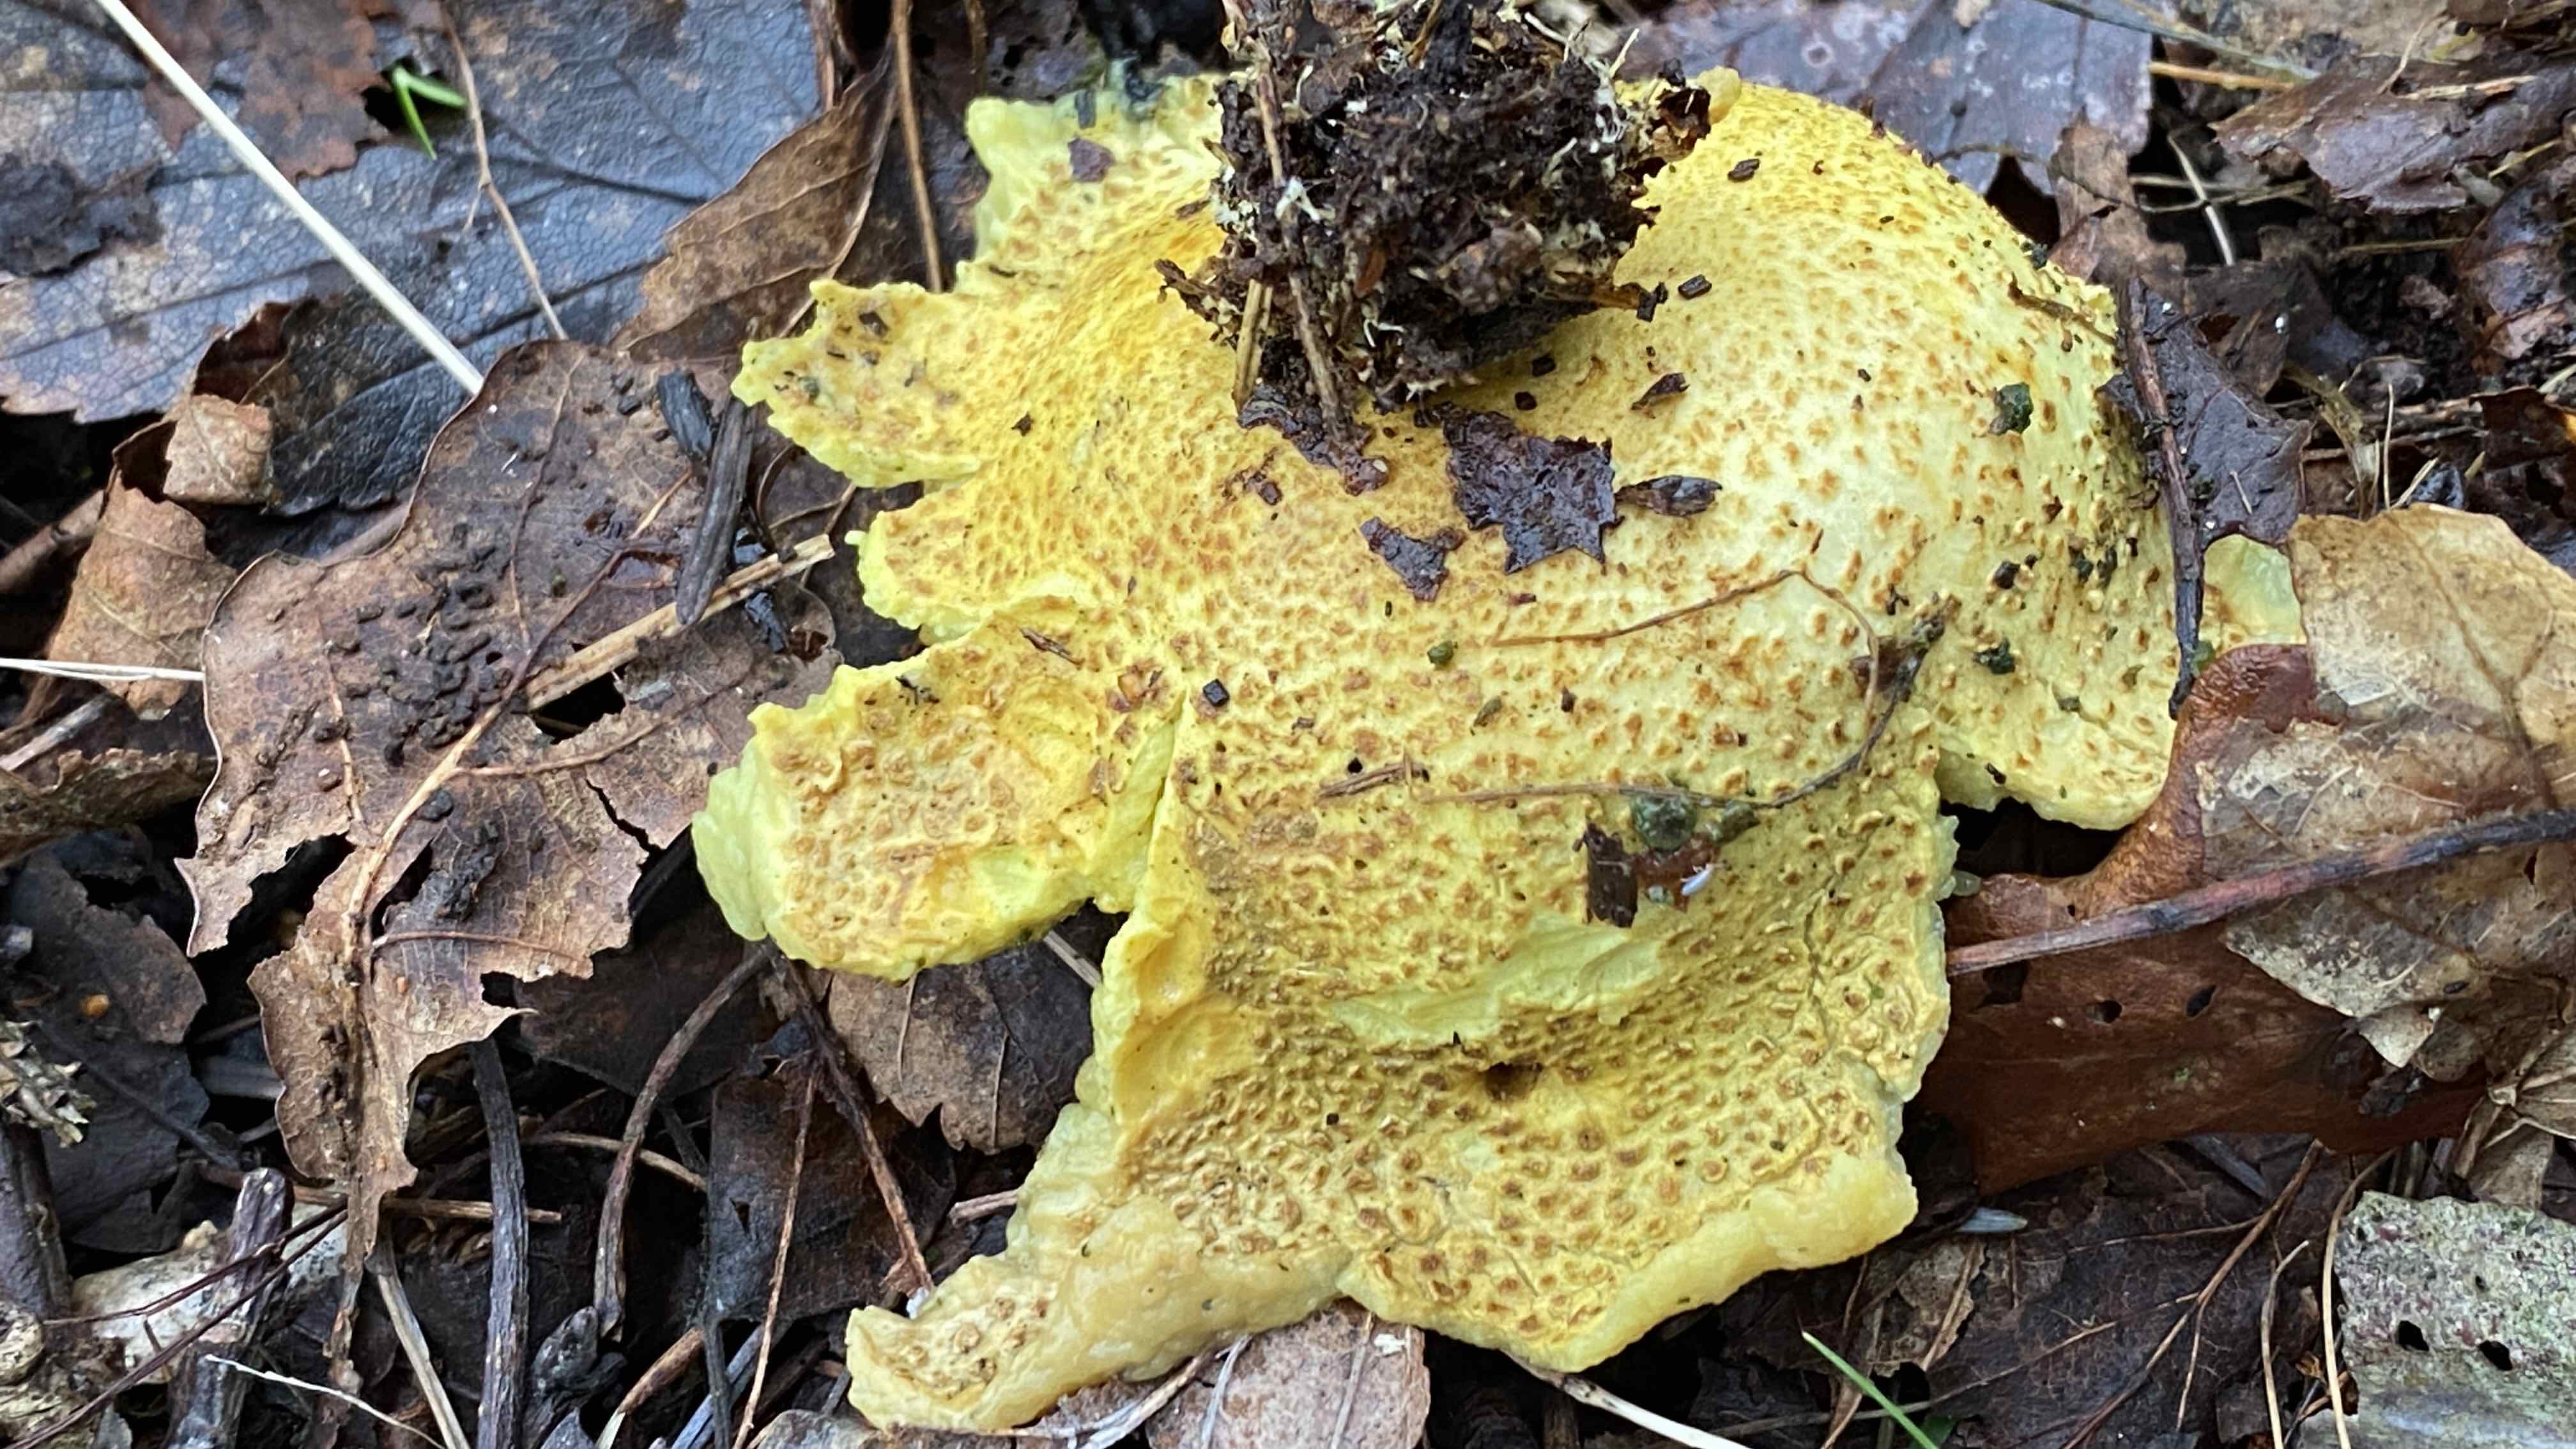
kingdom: Fungi
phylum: Basidiomycota
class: Agaricomycetes
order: Boletales
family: Sclerodermataceae
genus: Scleroderma
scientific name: Scleroderma citrinum
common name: almindelig bruskbold
